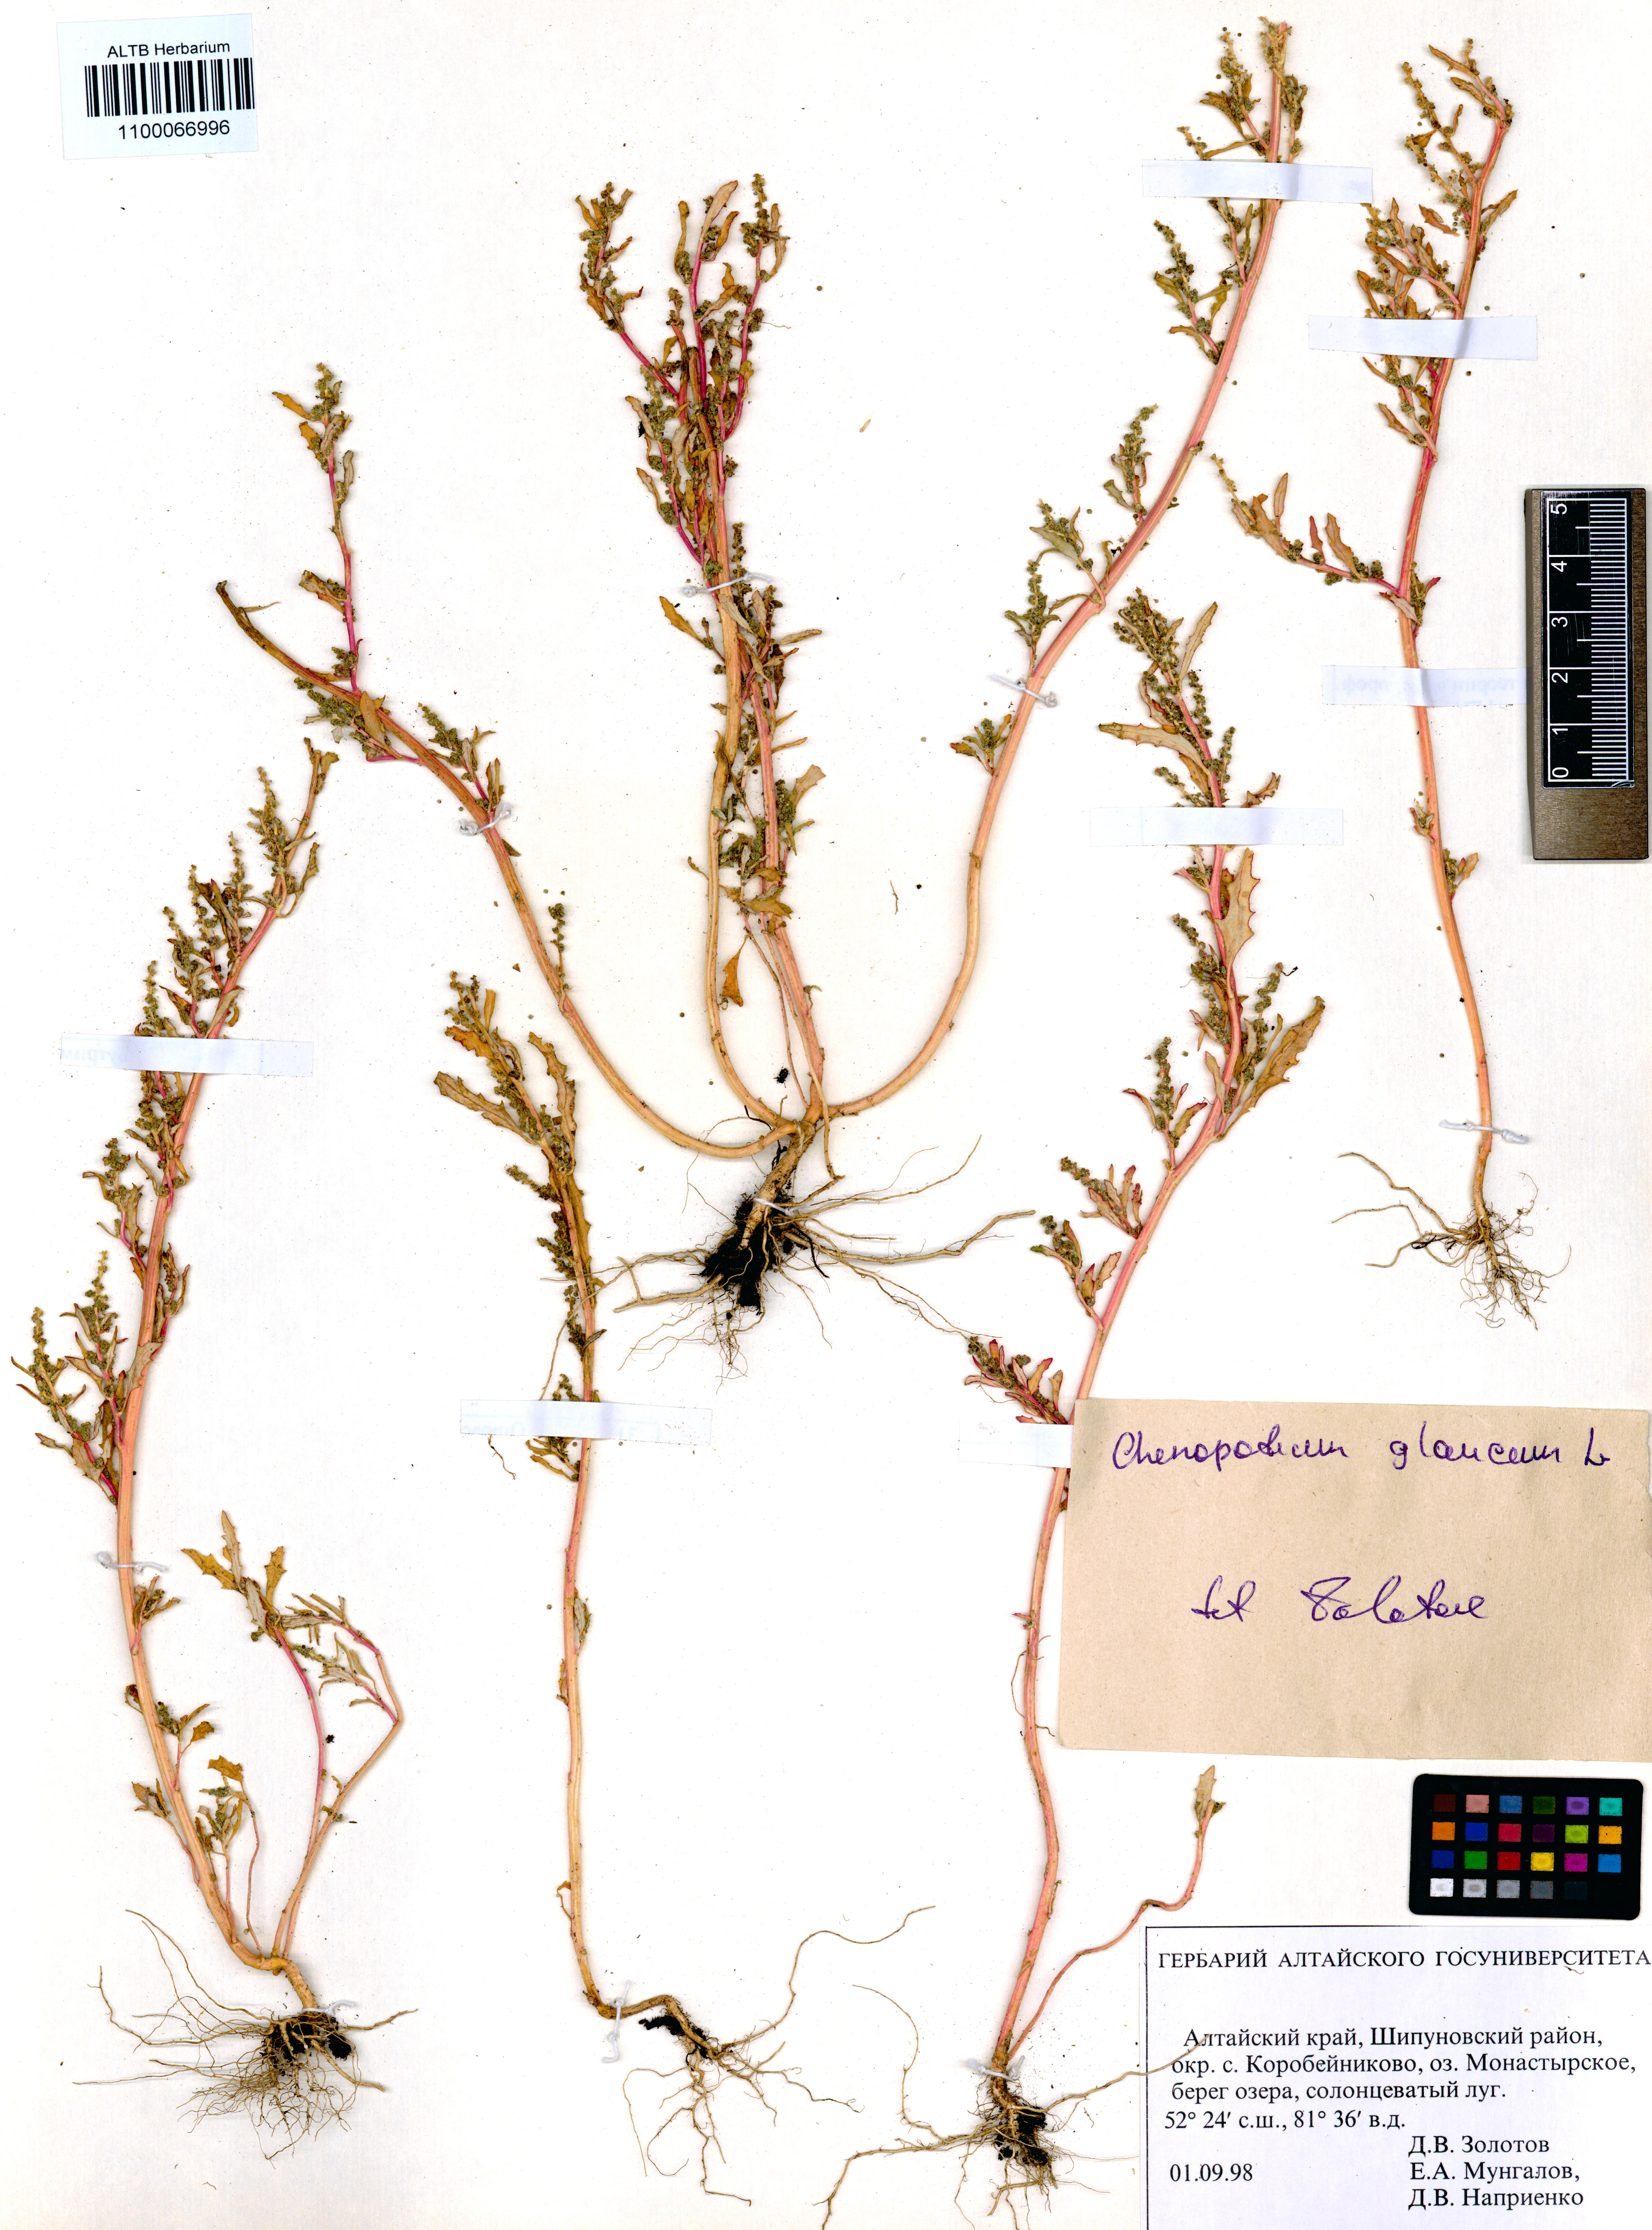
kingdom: Plantae
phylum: Tracheophyta
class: Magnoliopsida
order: Caryophyllales
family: Amaranthaceae
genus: Oxybasis
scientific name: Oxybasis glauca
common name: Glaucous goosefoot
